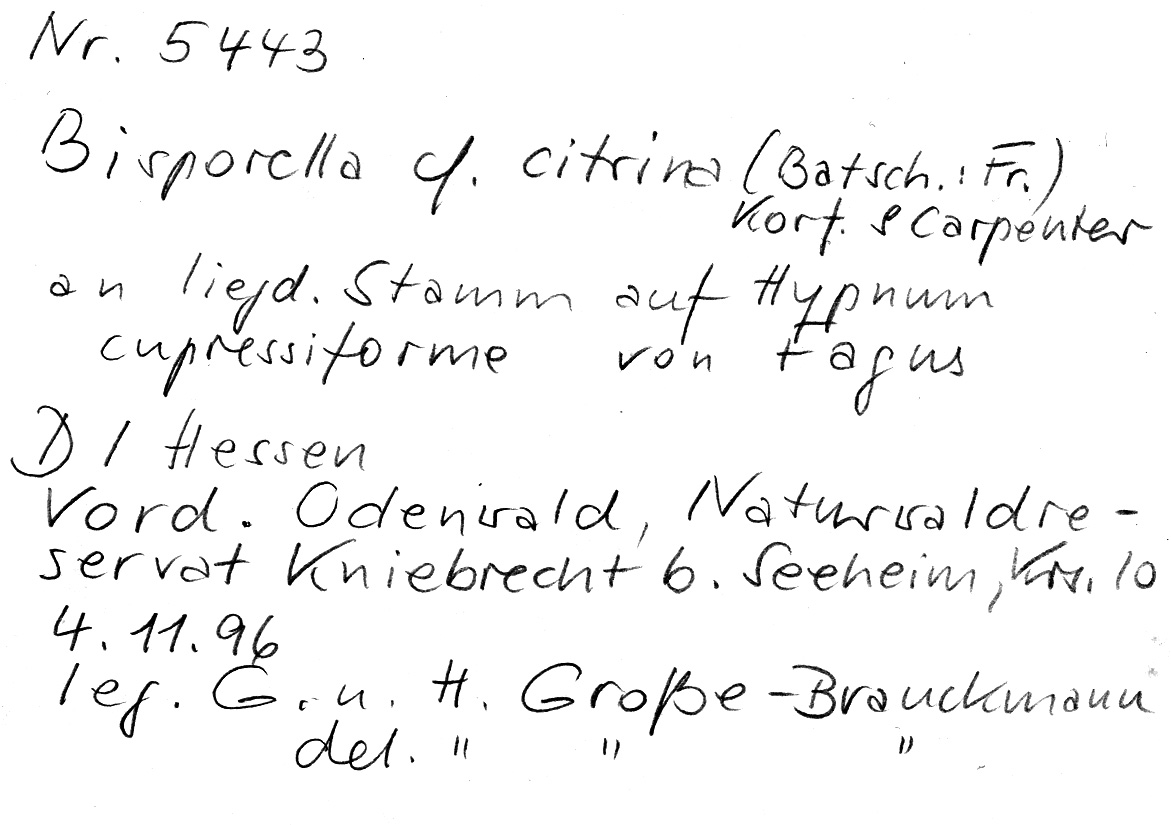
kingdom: Plantae
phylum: Bryophyta
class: Bryopsida
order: Hypnales
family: Hypnaceae
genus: Hypnum
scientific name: Hypnum cupressiforme
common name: Cypress-leaved plait-moss
